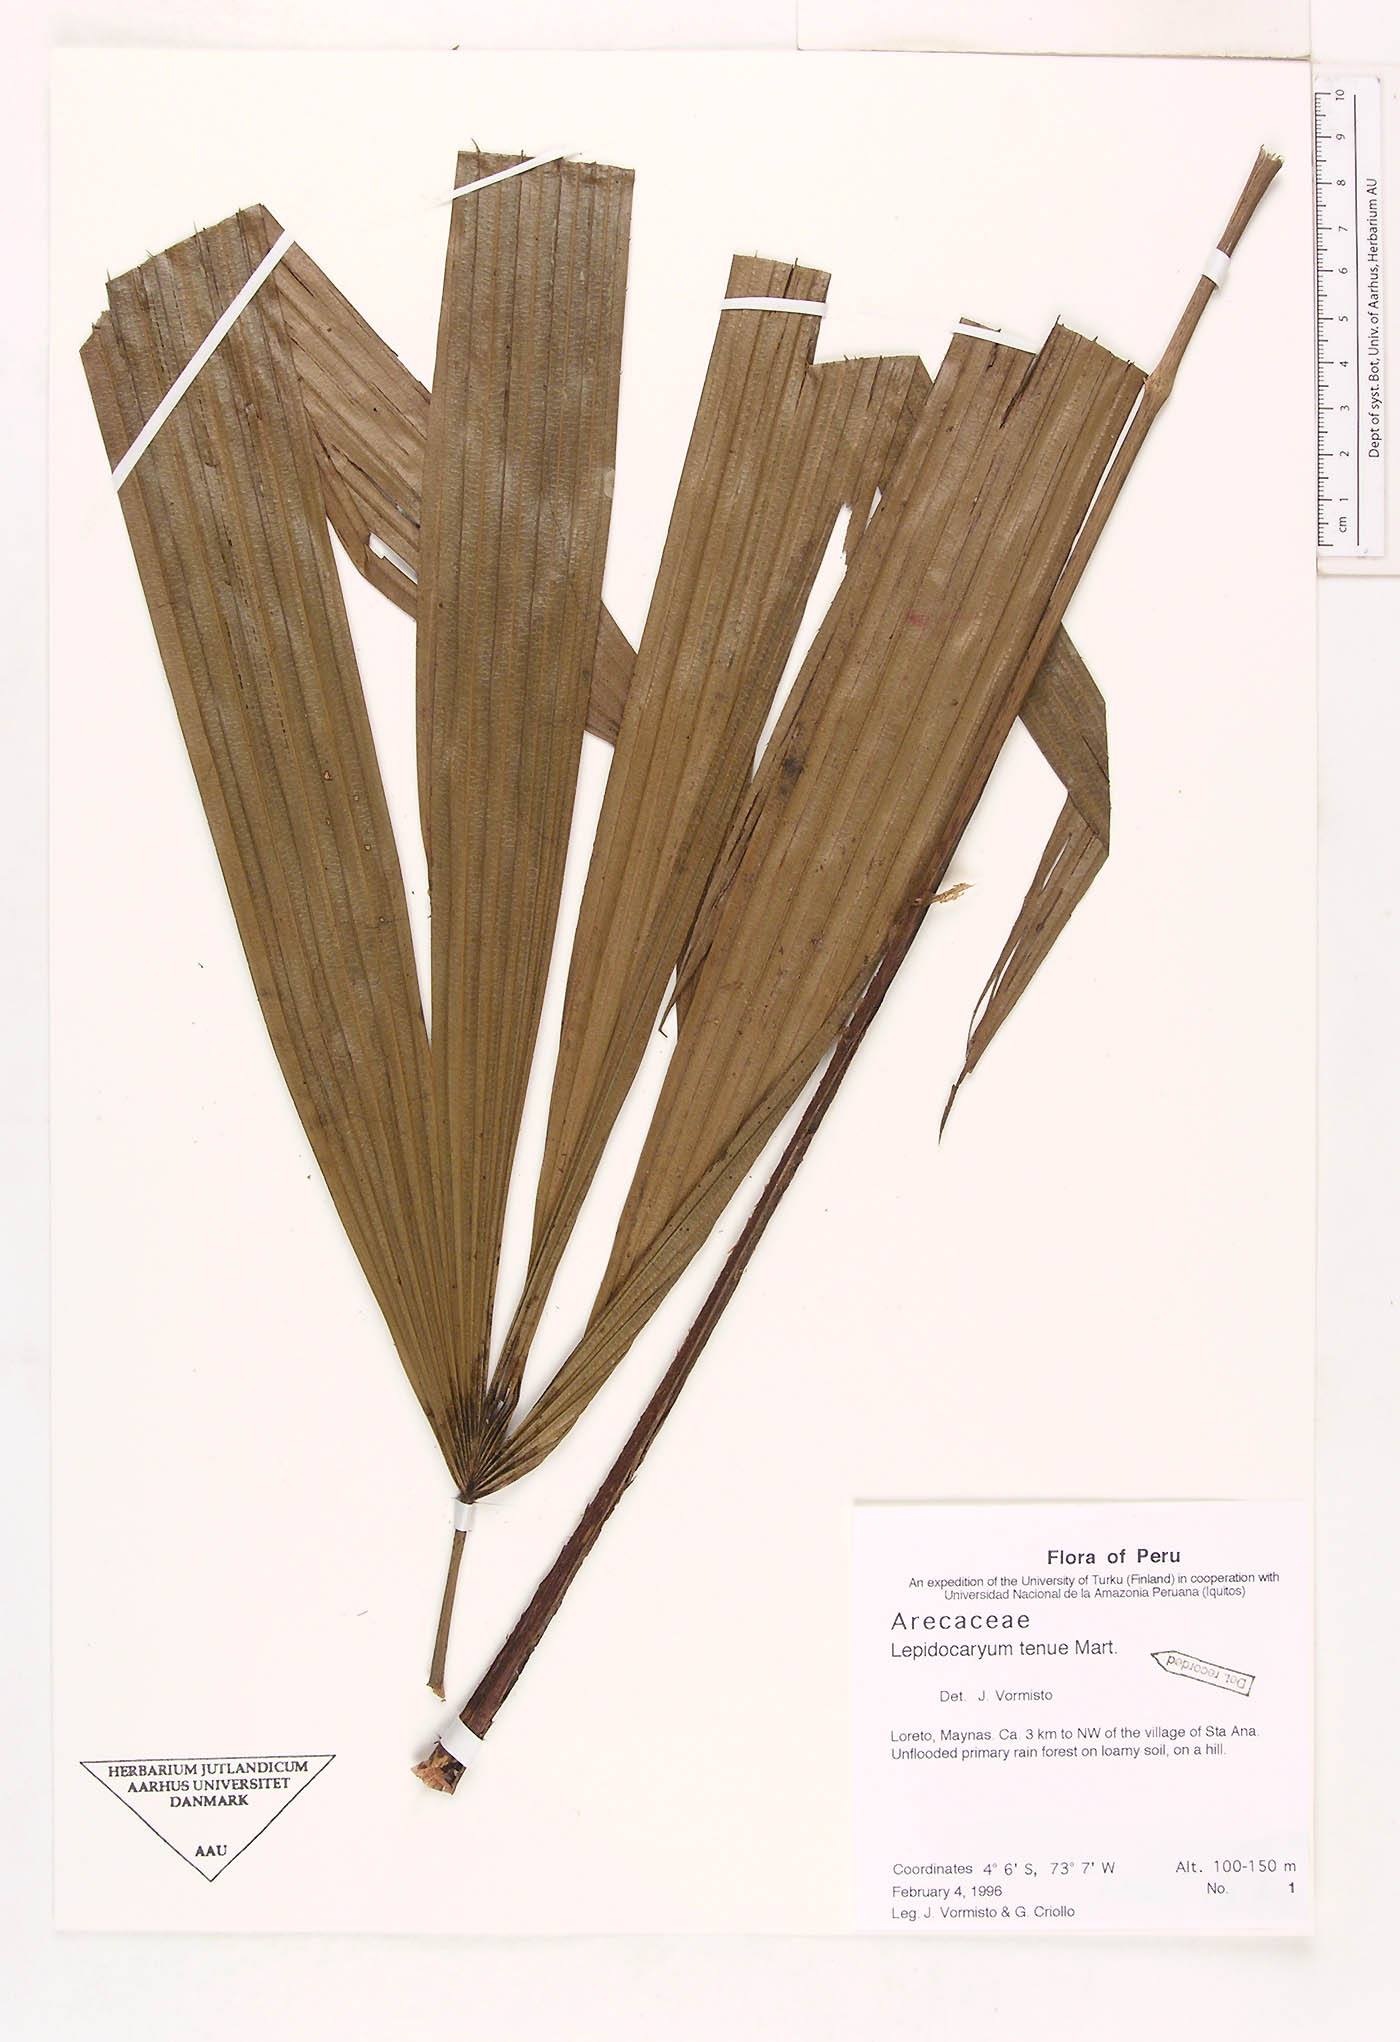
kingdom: Plantae
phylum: Tracheophyta
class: Liliopsida
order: Arecales
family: Arecaceae
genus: Lepidocaryum
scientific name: Lepidocaryum tenue
